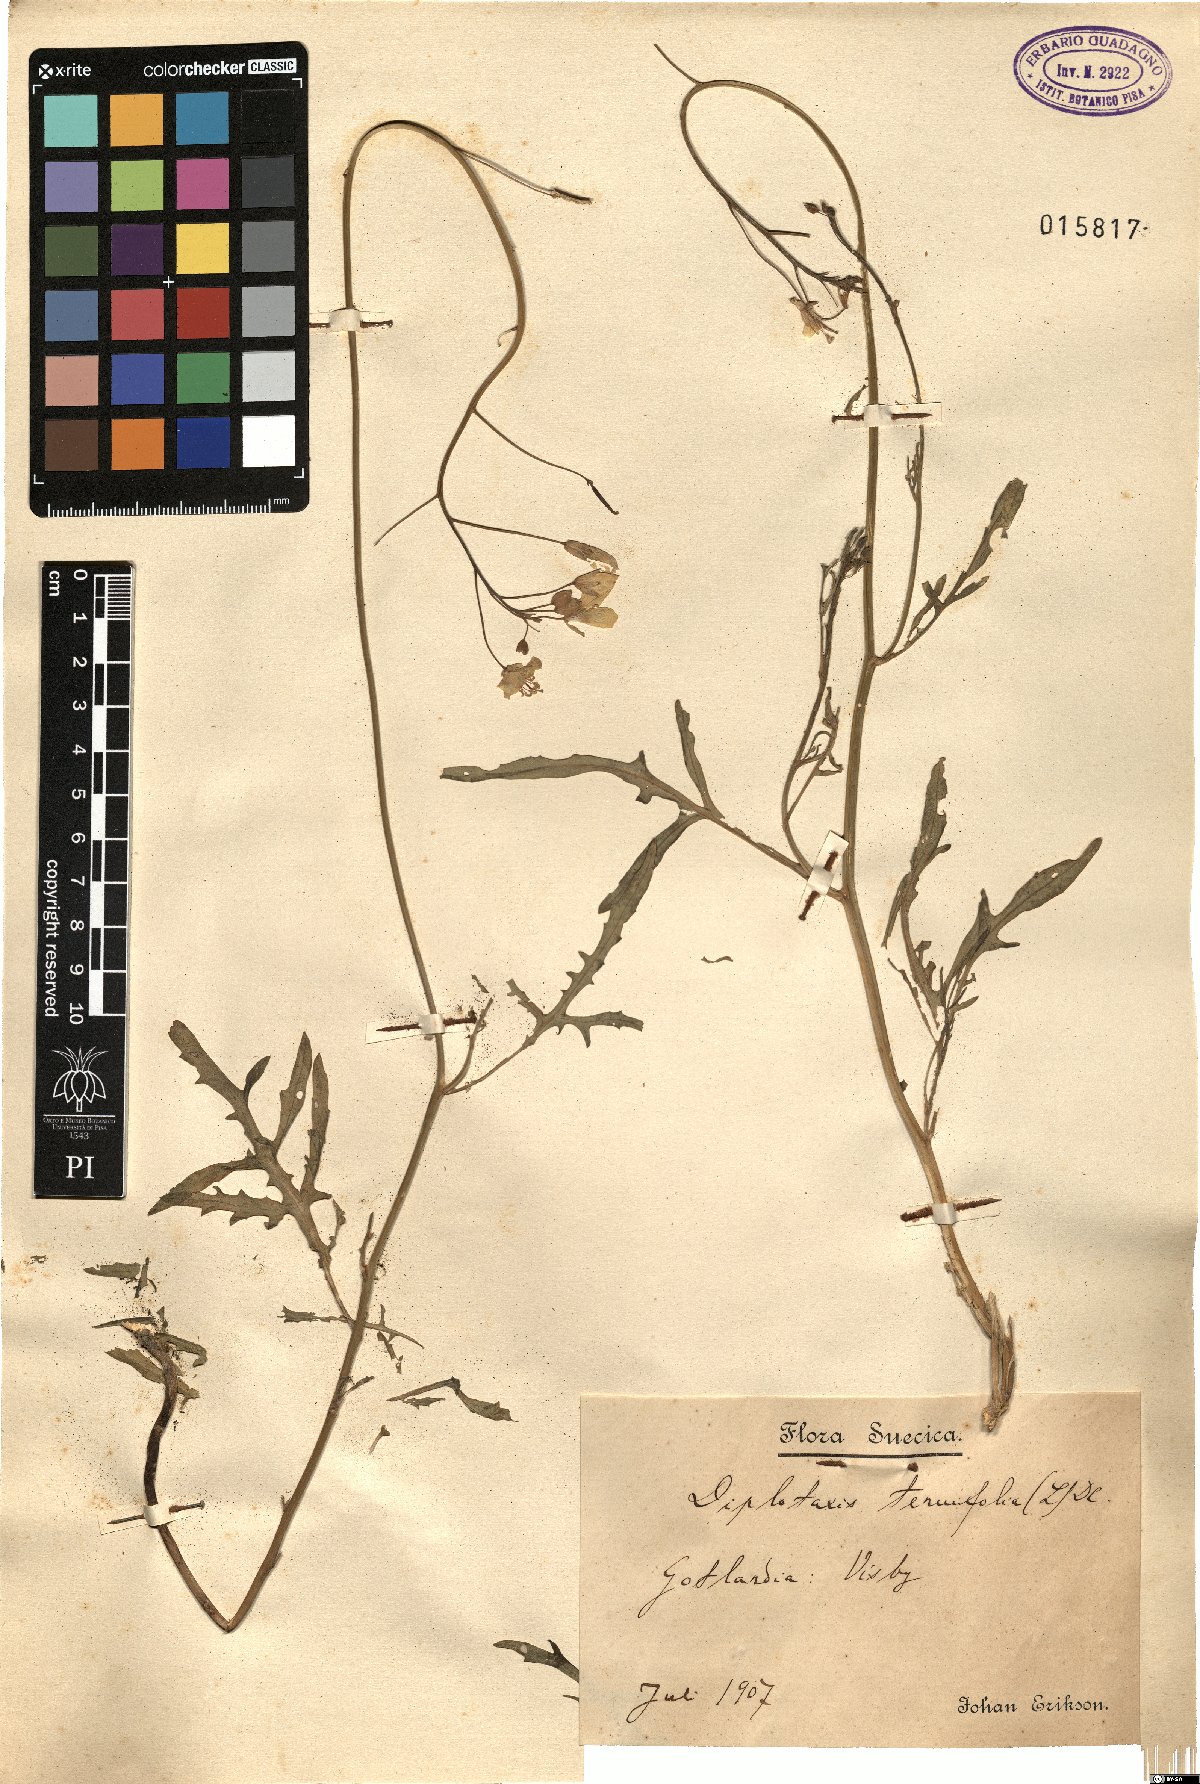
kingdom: Plantae
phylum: Tracheophyta
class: Magnoliopsida
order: Brassicales
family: Brassicaceae
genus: Diplotaxis
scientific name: Diplotaxis tenuifolia
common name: Perennial wall-rocket
